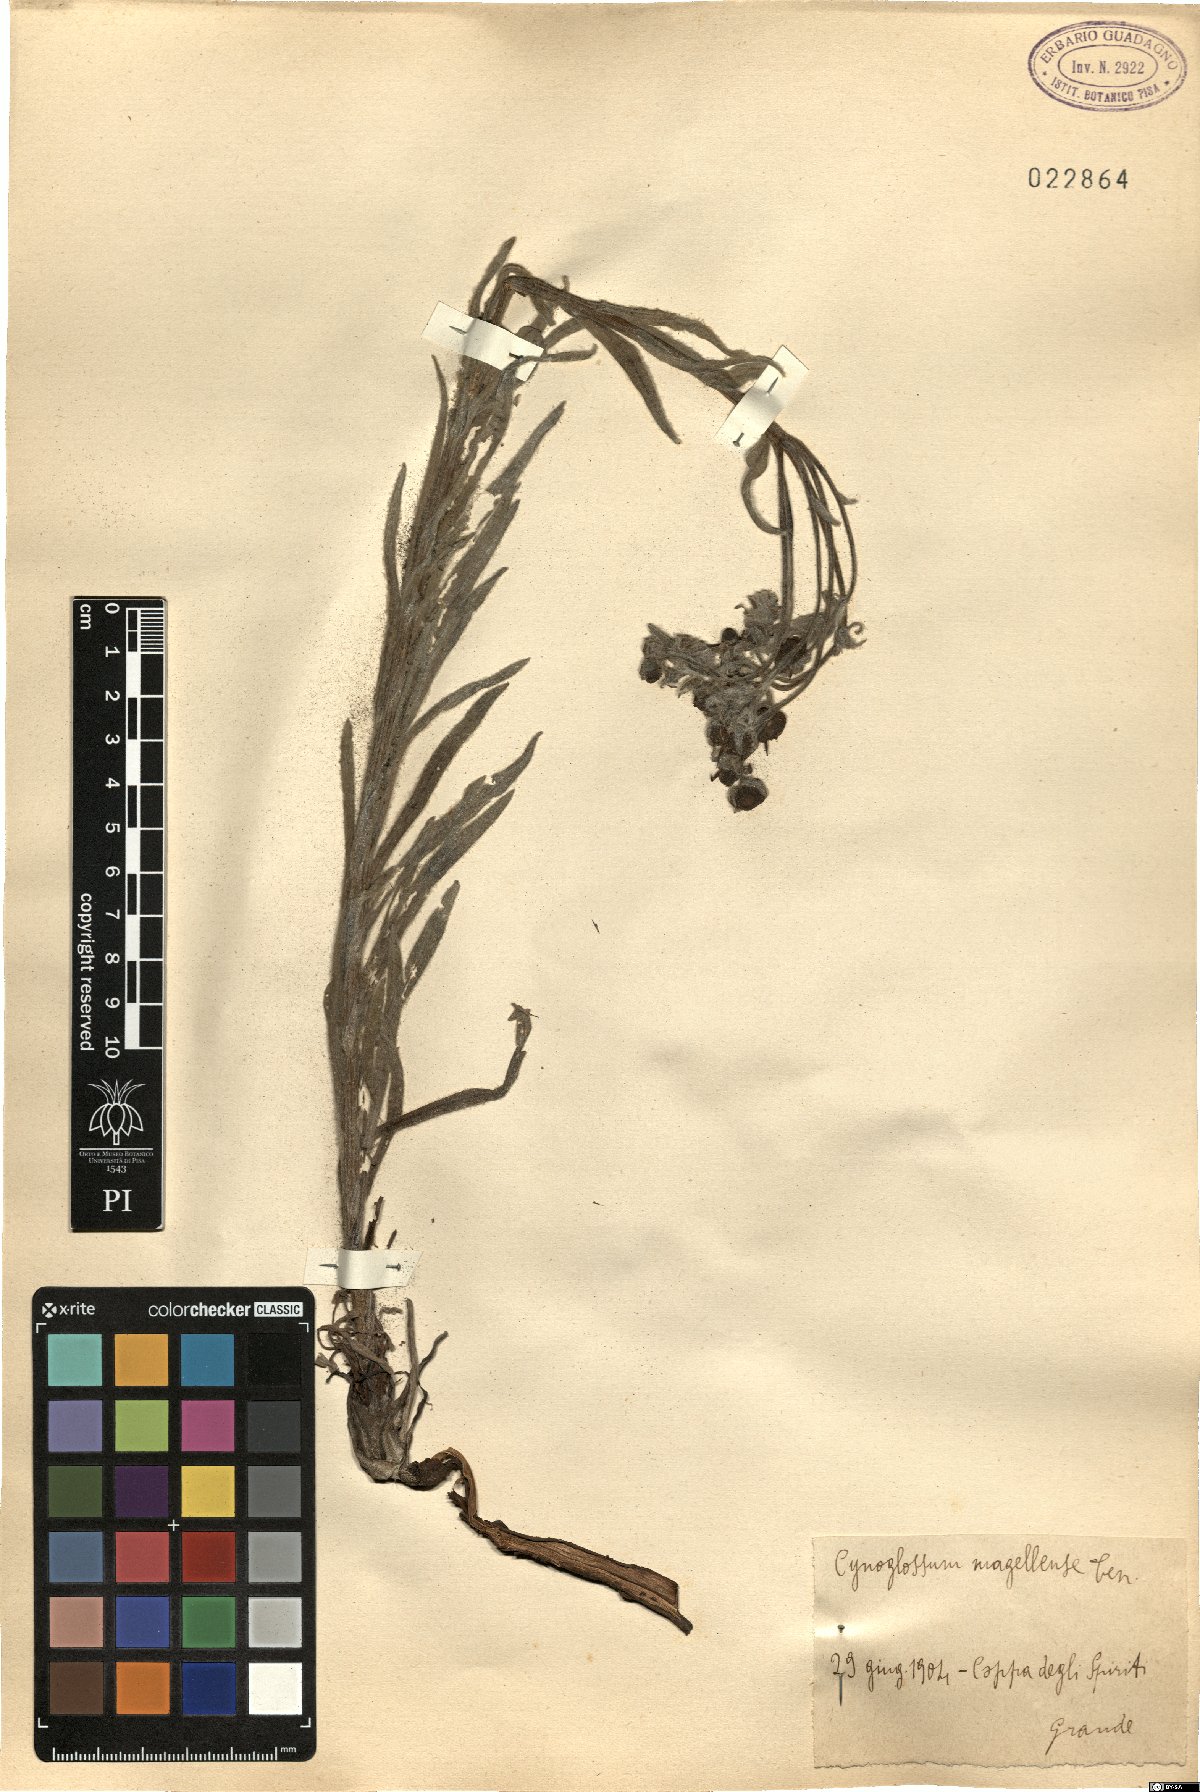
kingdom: Plantae
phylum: Tracheophyta
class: Magnoliopsida
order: Boraginales
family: Boraginaceae
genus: Rindera
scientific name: Rindera magellensis
